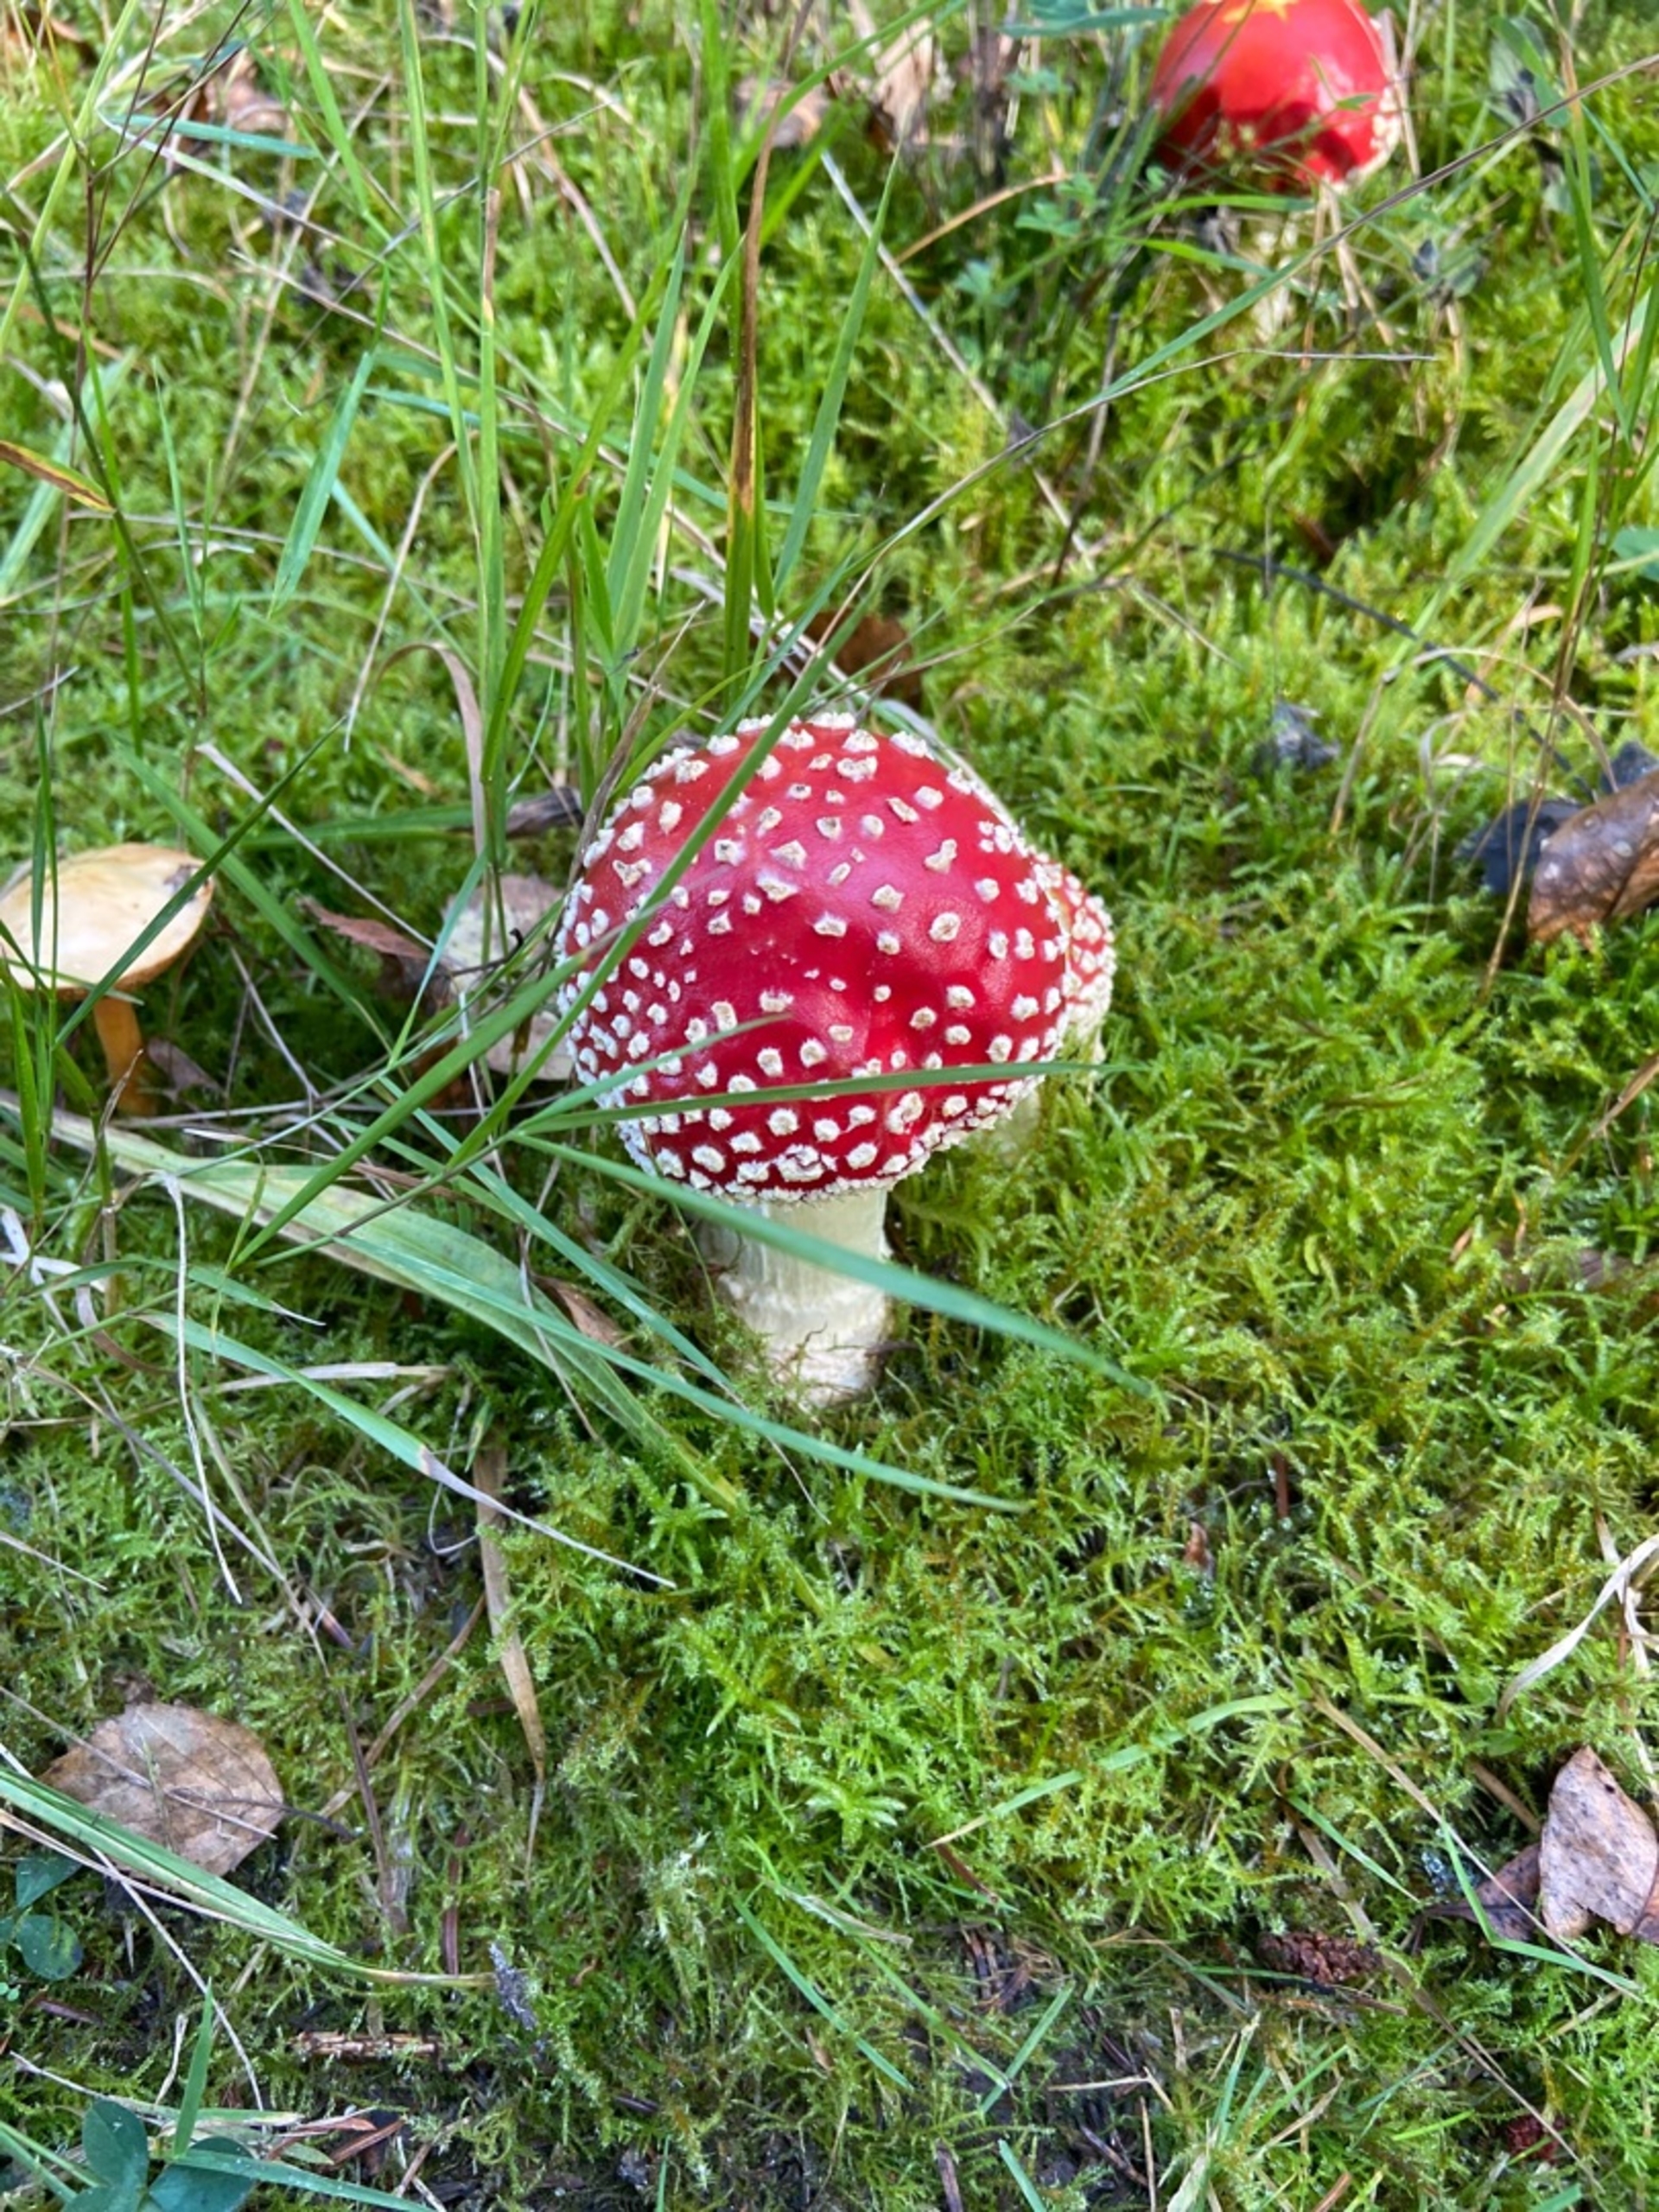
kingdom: Fungi
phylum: Basidiomycota
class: Agaricomycetes
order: Agaricales
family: Amanitaceae
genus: Amanita
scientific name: Amanita muscaria
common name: Rød fluesvamp
